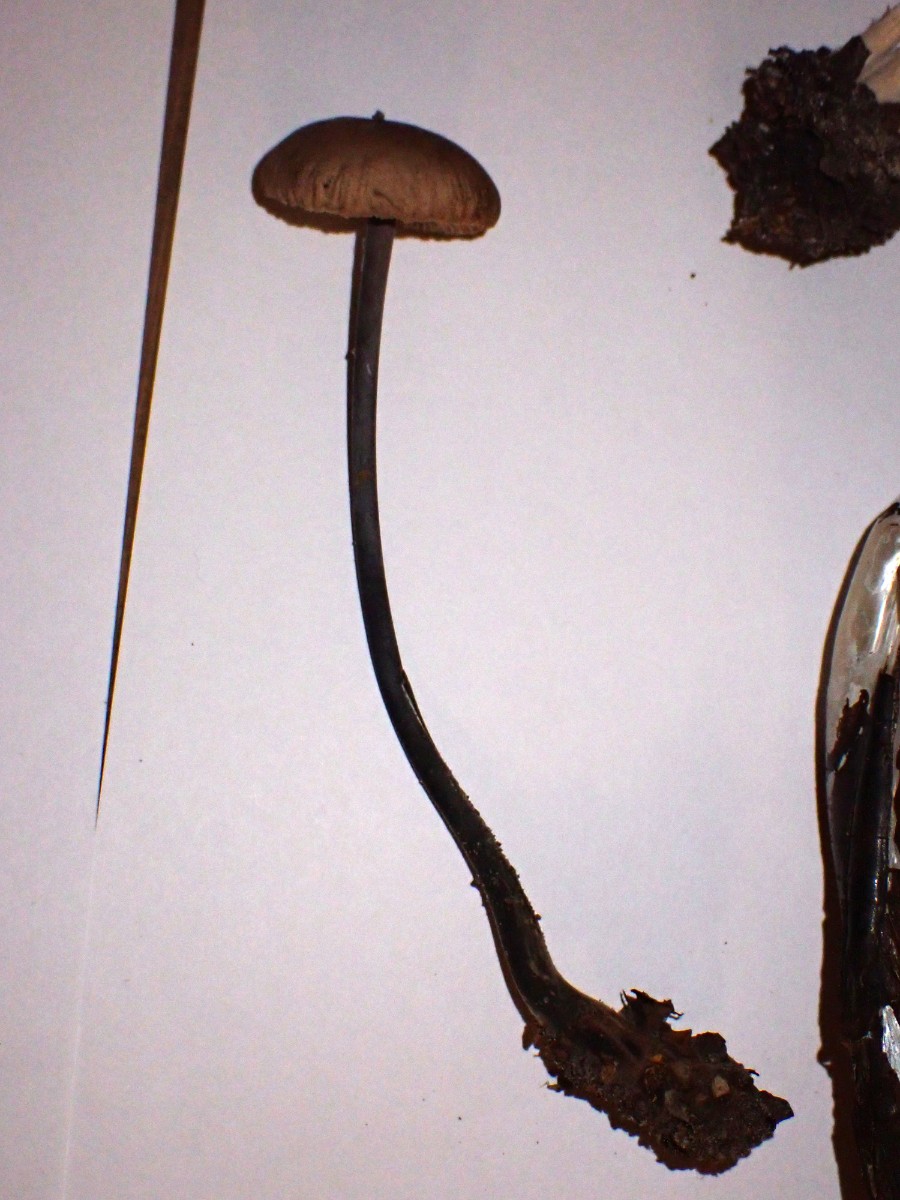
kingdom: Fungi
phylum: Basidiomycota
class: Agaricomycetes
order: Agaricales
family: Omphalotaceae
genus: Mycetinis
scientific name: Mycetinis alliaceus
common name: stor løghat
